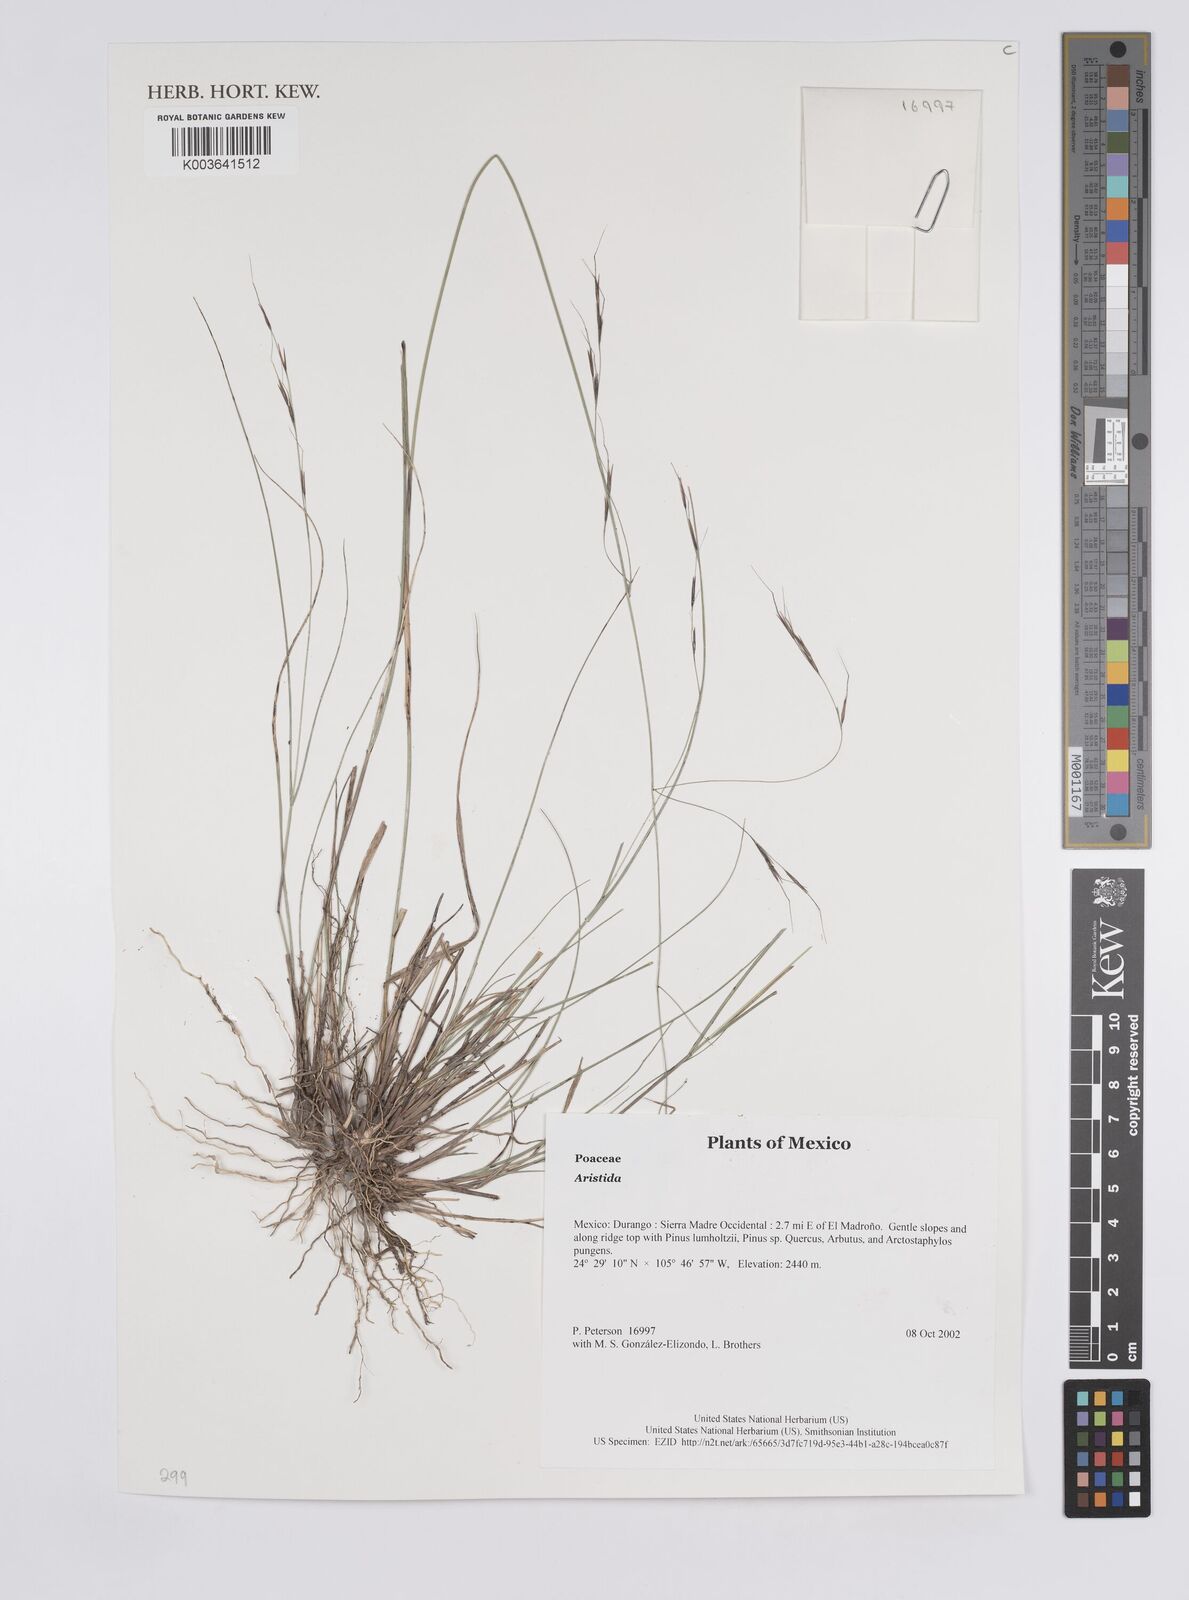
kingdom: Plantae
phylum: Tracheophyta
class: Liliopsida
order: Poales
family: Poaceae
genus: Aristida
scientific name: Aristida
